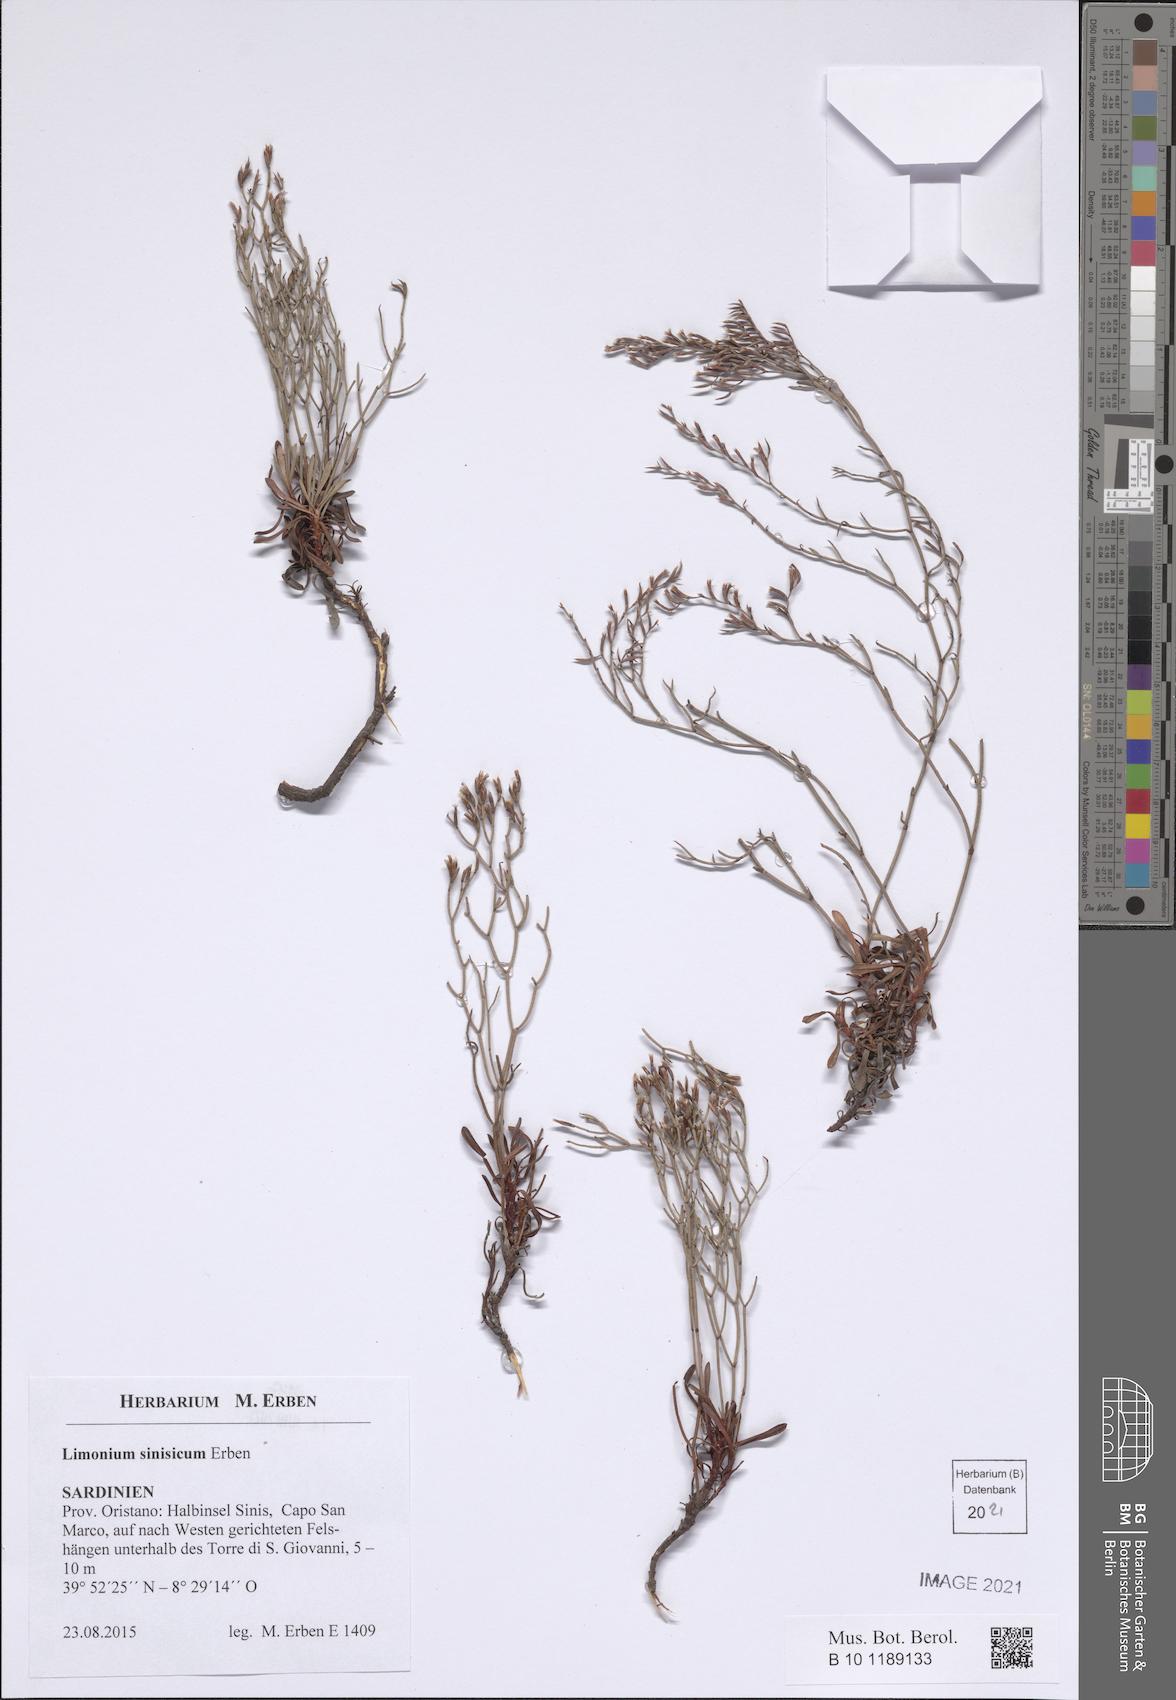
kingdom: Plantae
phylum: Tracheophyta
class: Magnoliopsida
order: Caryophyllales
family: Plumbaginaceae
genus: Limonium
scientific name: Limonium acutifolium
